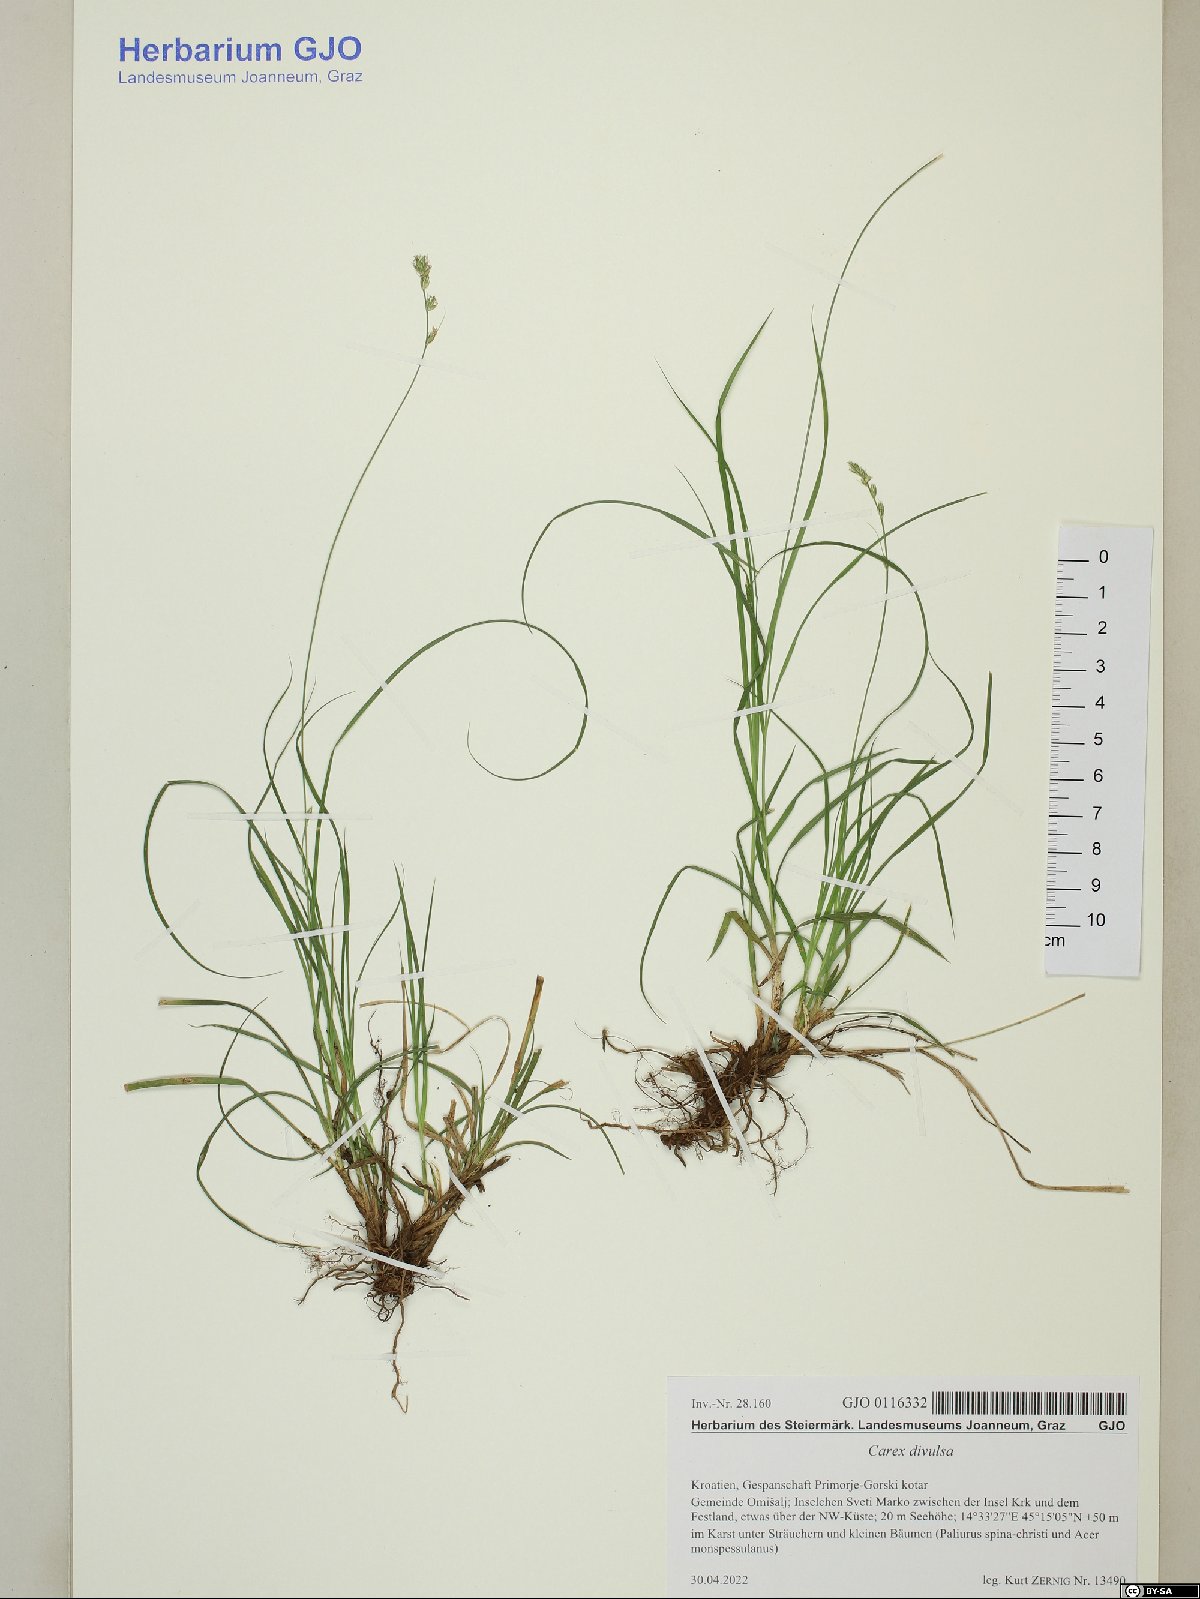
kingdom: Plantae
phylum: Tracheophyta
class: Liliopsida
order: Poales
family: Cyperaceae
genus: Carex
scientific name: Carex divulsa
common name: Grassland sedge
